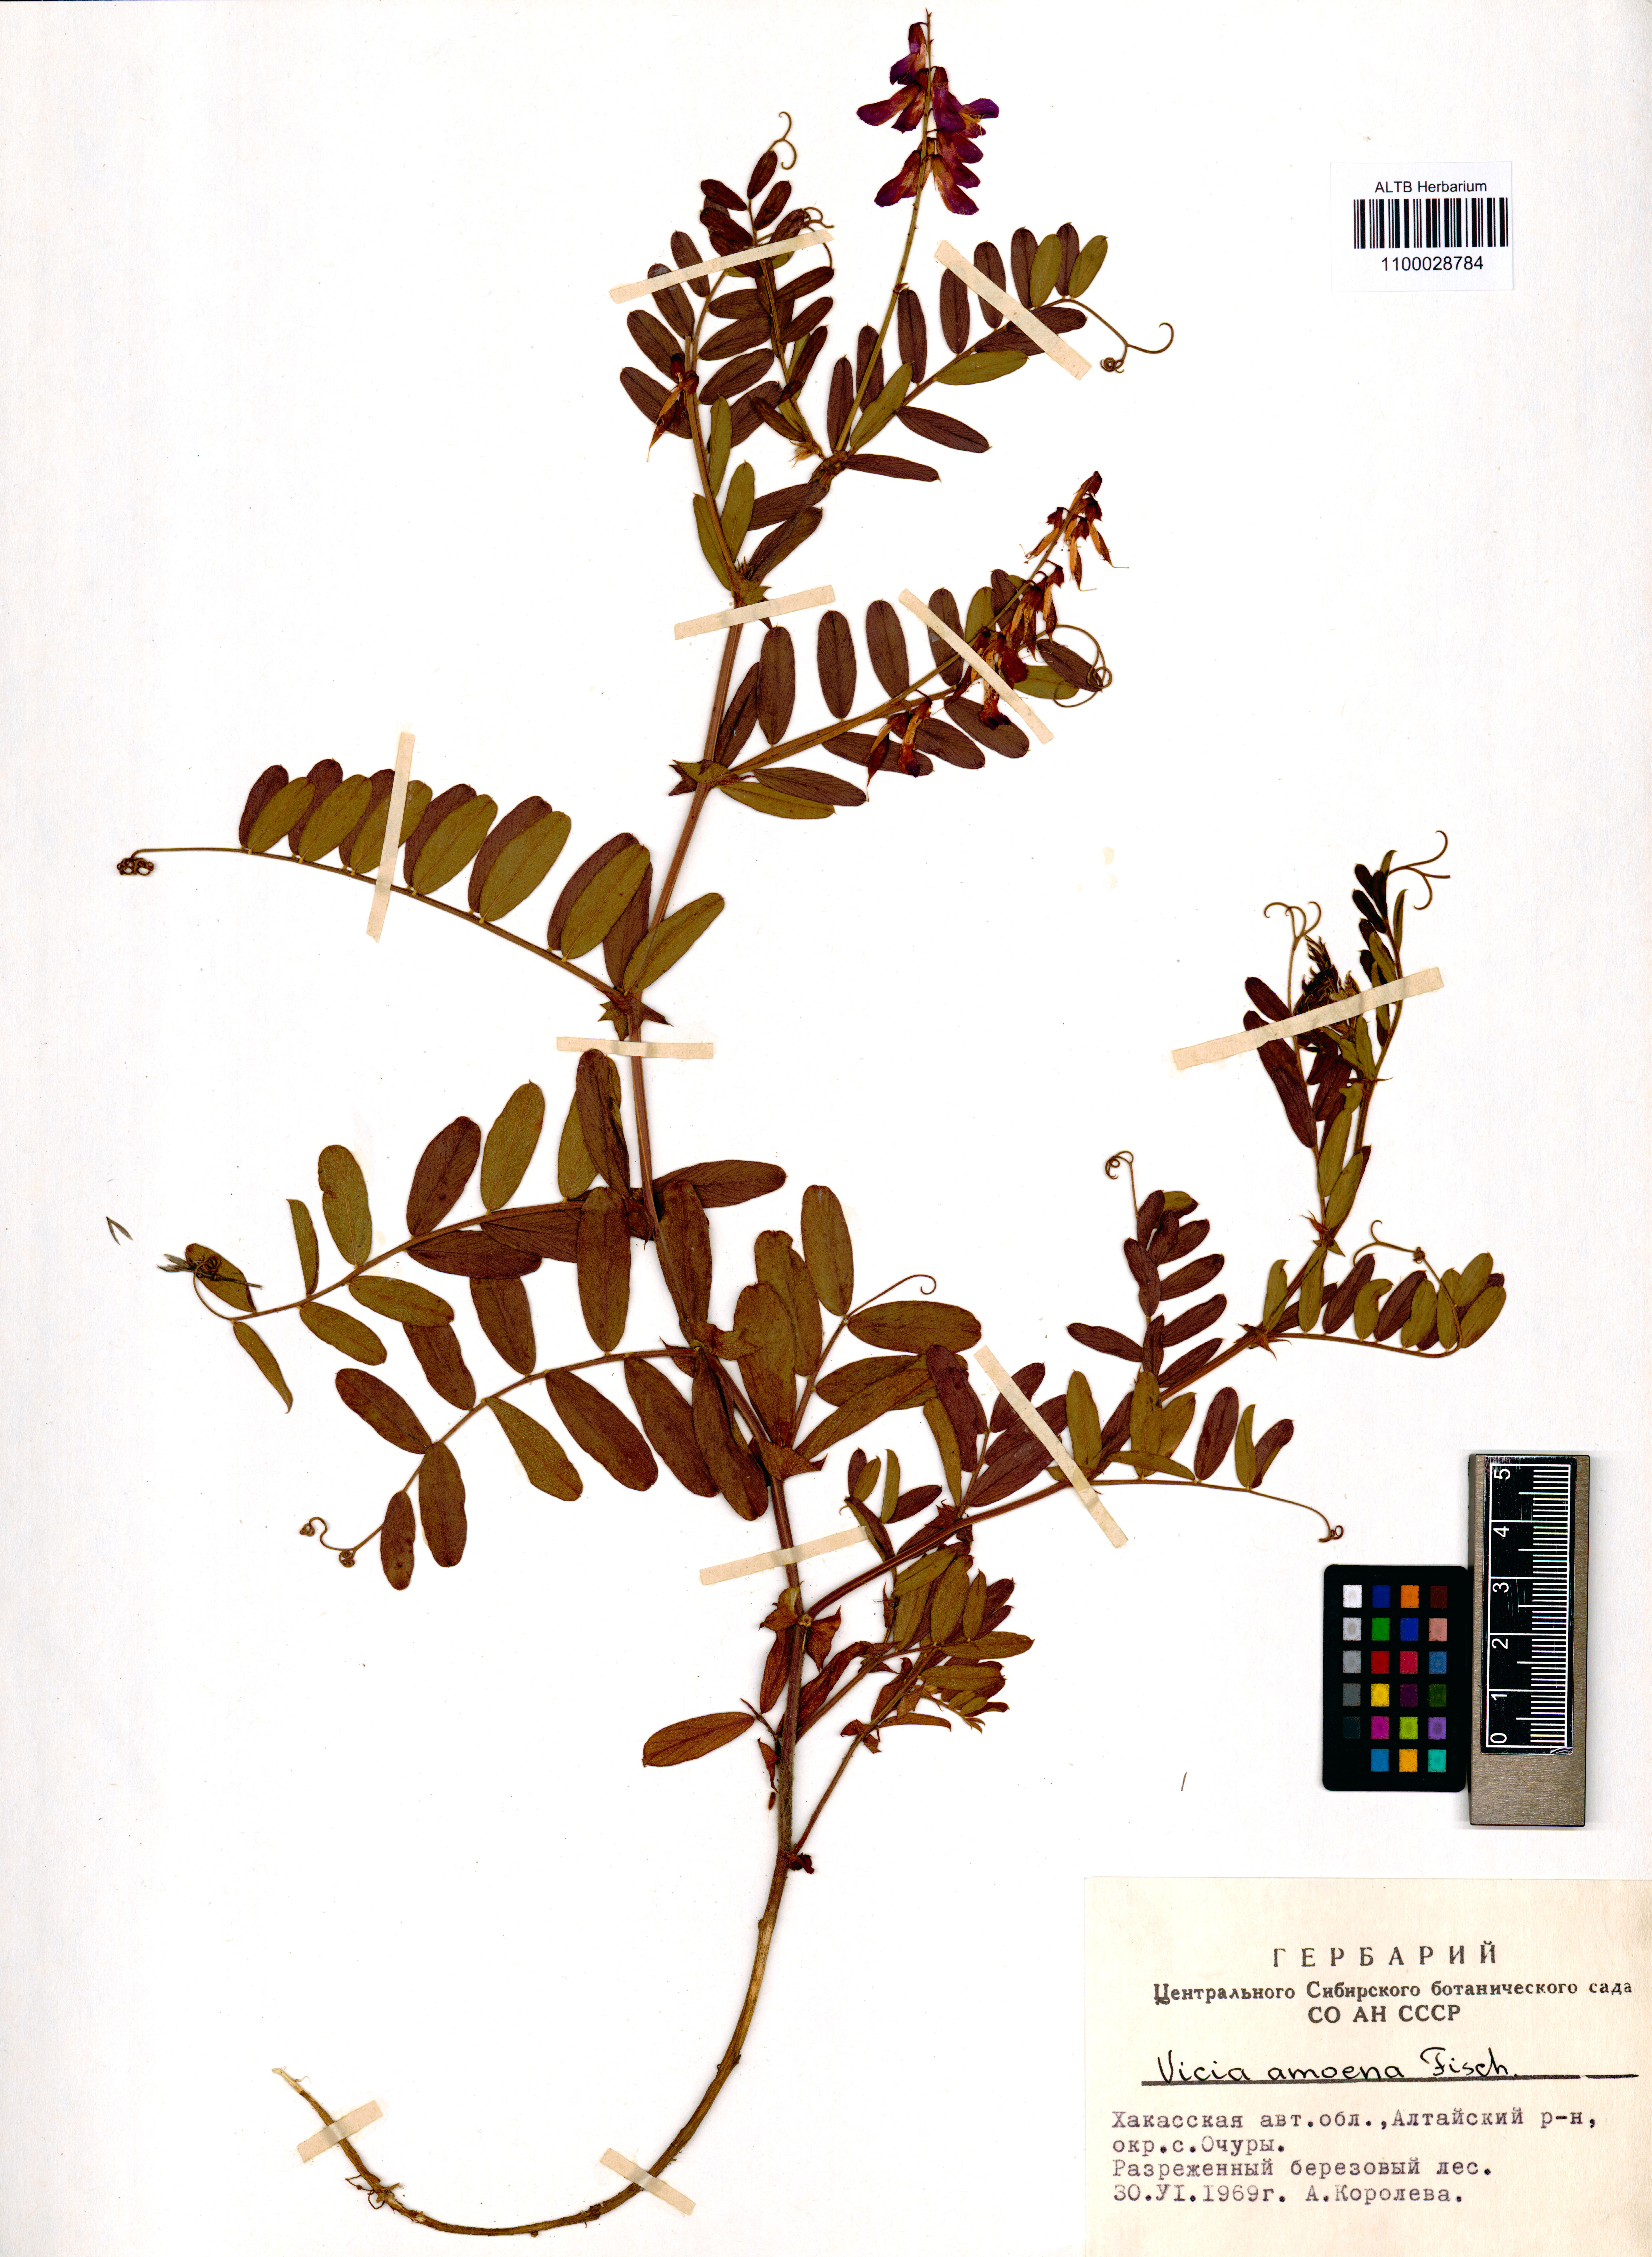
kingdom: Plantae
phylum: Tracheophyta
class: Magnoliopsida
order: Fabales
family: Fabaceae
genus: Vicia
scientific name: Vicia amoena
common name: Cheder ebs
